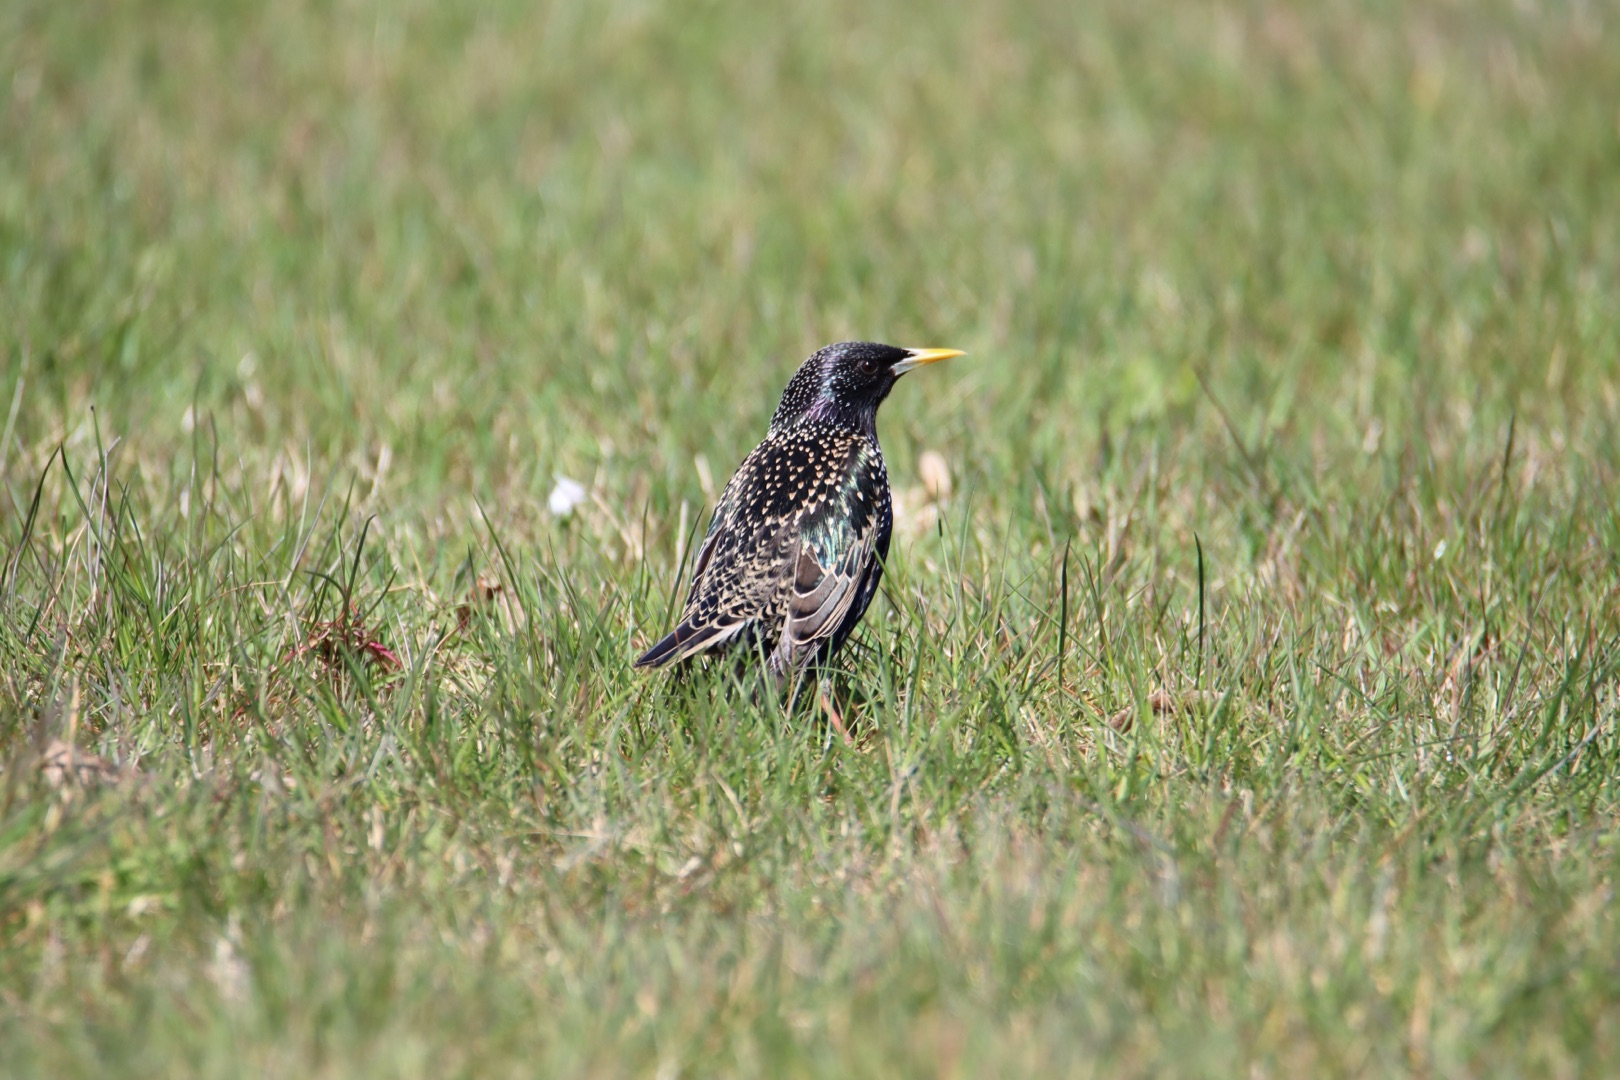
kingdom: Animalia
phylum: Chordata
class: Aves
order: Passeriformes
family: Sturnidae
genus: Sturnus
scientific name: Sturnus vulgaris
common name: Stær
